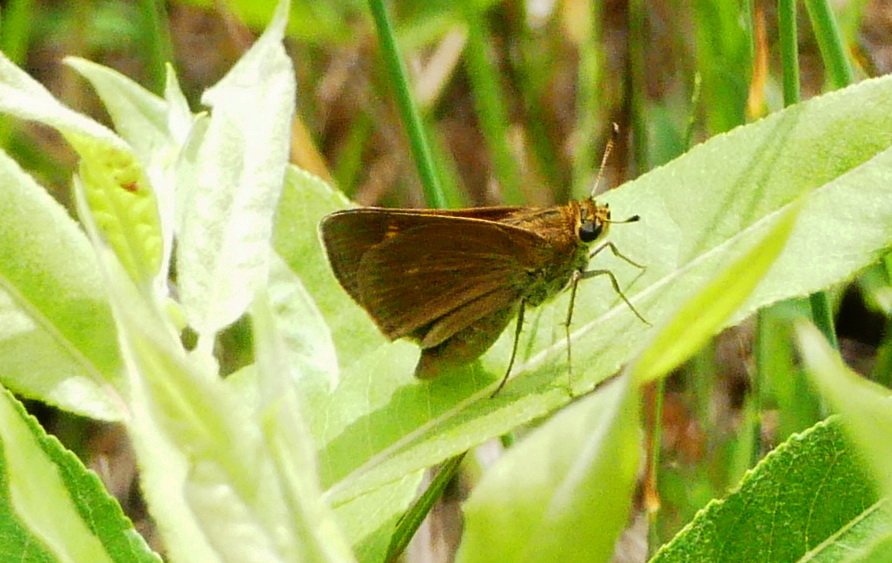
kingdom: Animalia
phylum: Arthropoda
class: Insecta
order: Lepidoptera
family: Hesperiidae
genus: Polites
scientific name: Polites
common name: Crossline Skipper
